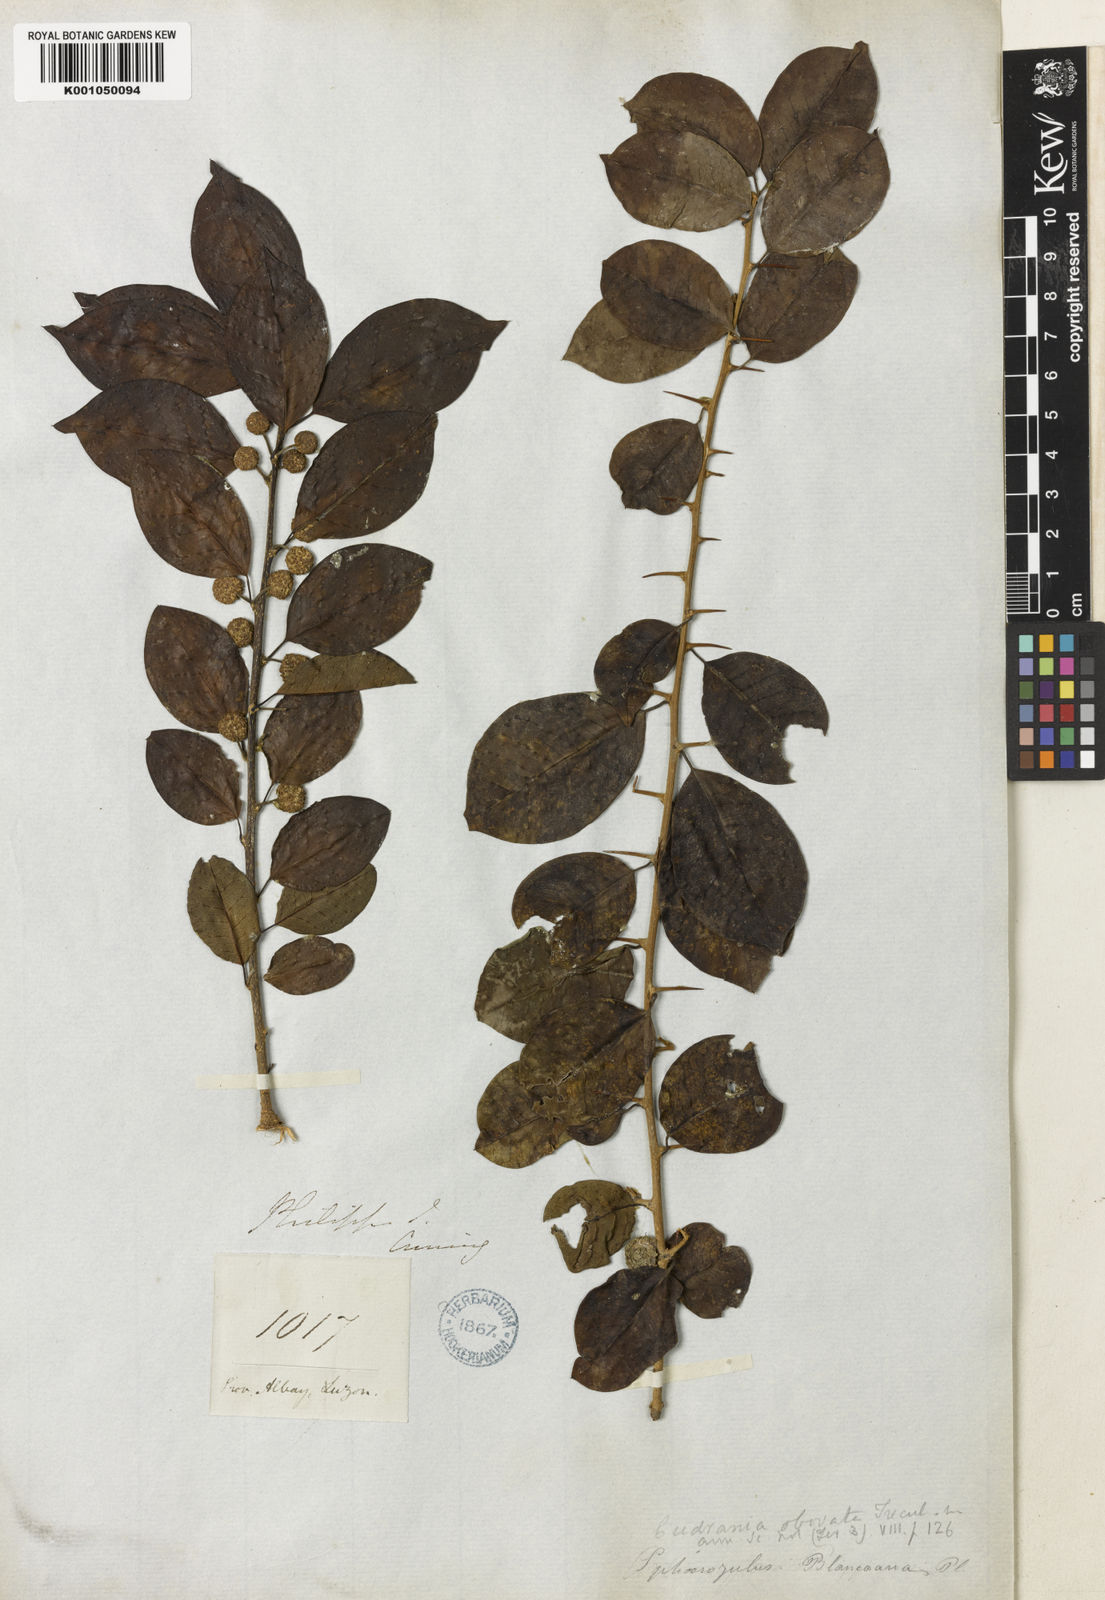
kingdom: Plantae
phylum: Tracheophyta
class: Magnoliopsida
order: Rosales
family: Moraceae
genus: Maclura
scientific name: Maclura cochinchinensis
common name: Cockspurthorn
